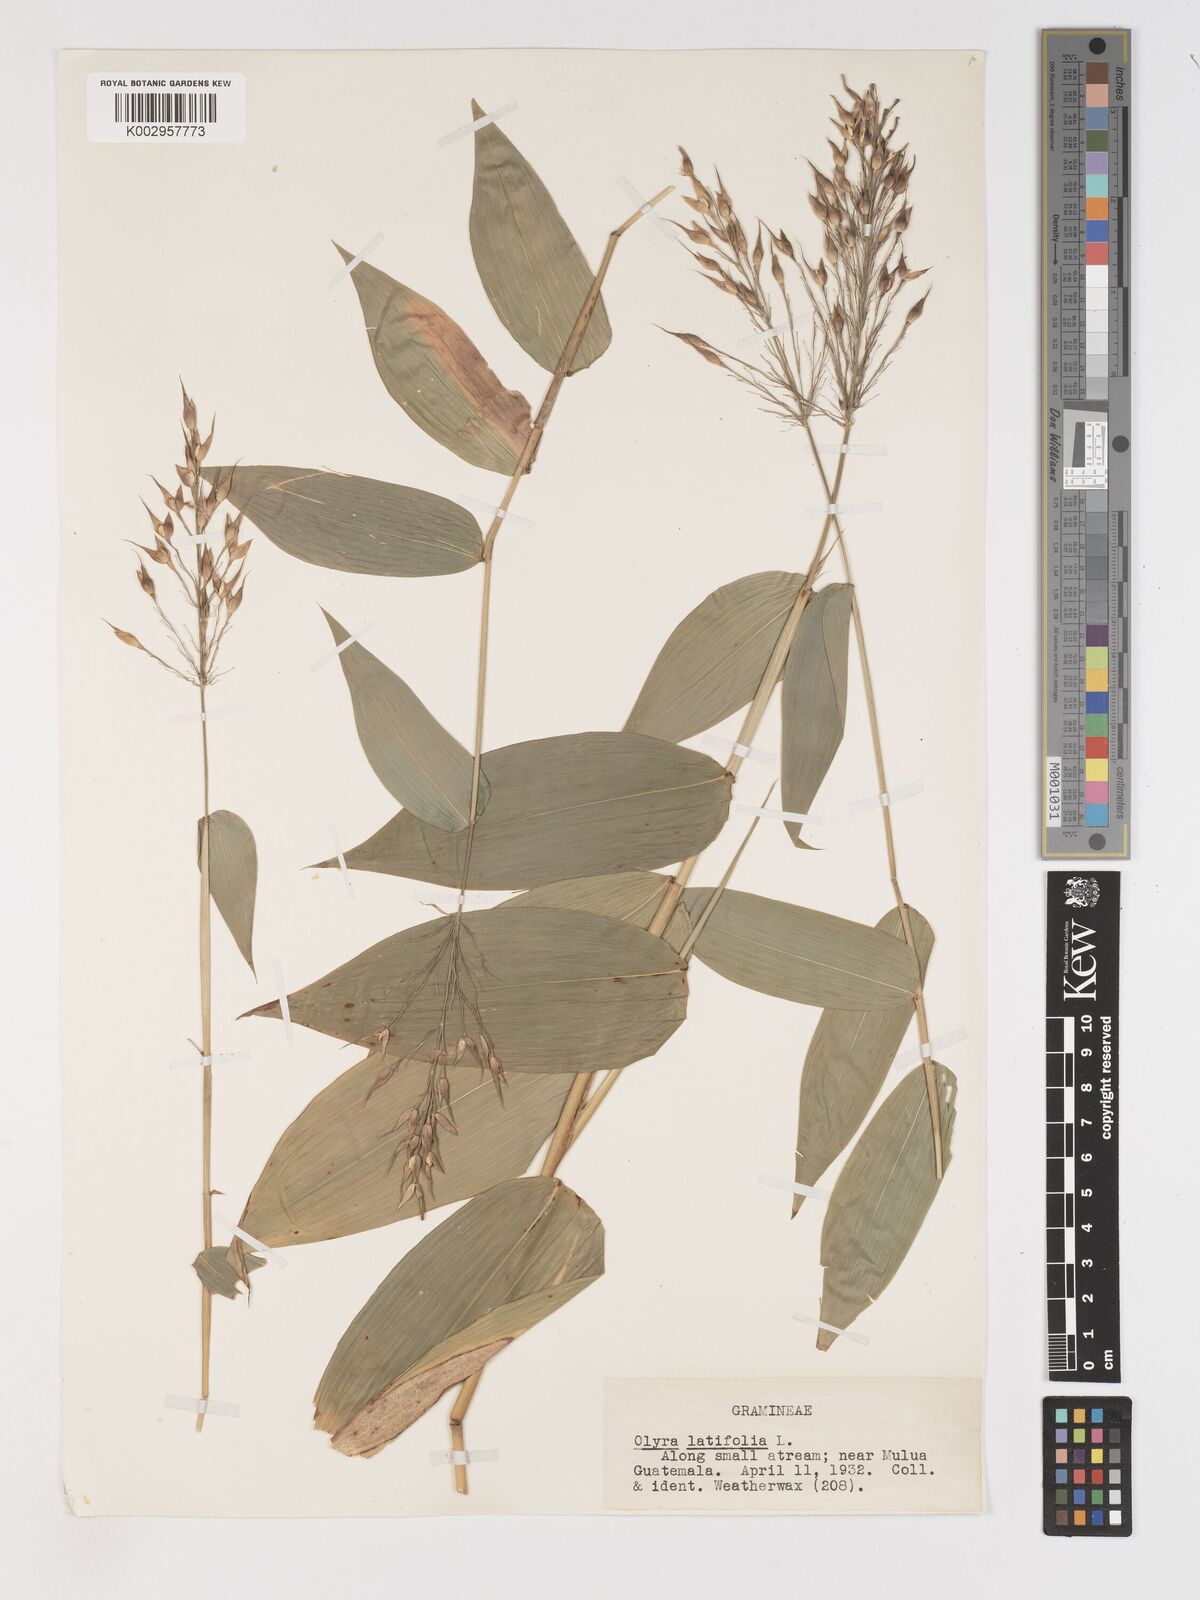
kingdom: Plantae
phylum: Tracheophyta
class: Liliopsida
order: Poales
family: Poaceae
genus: Olyra
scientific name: Olyra latifolia
